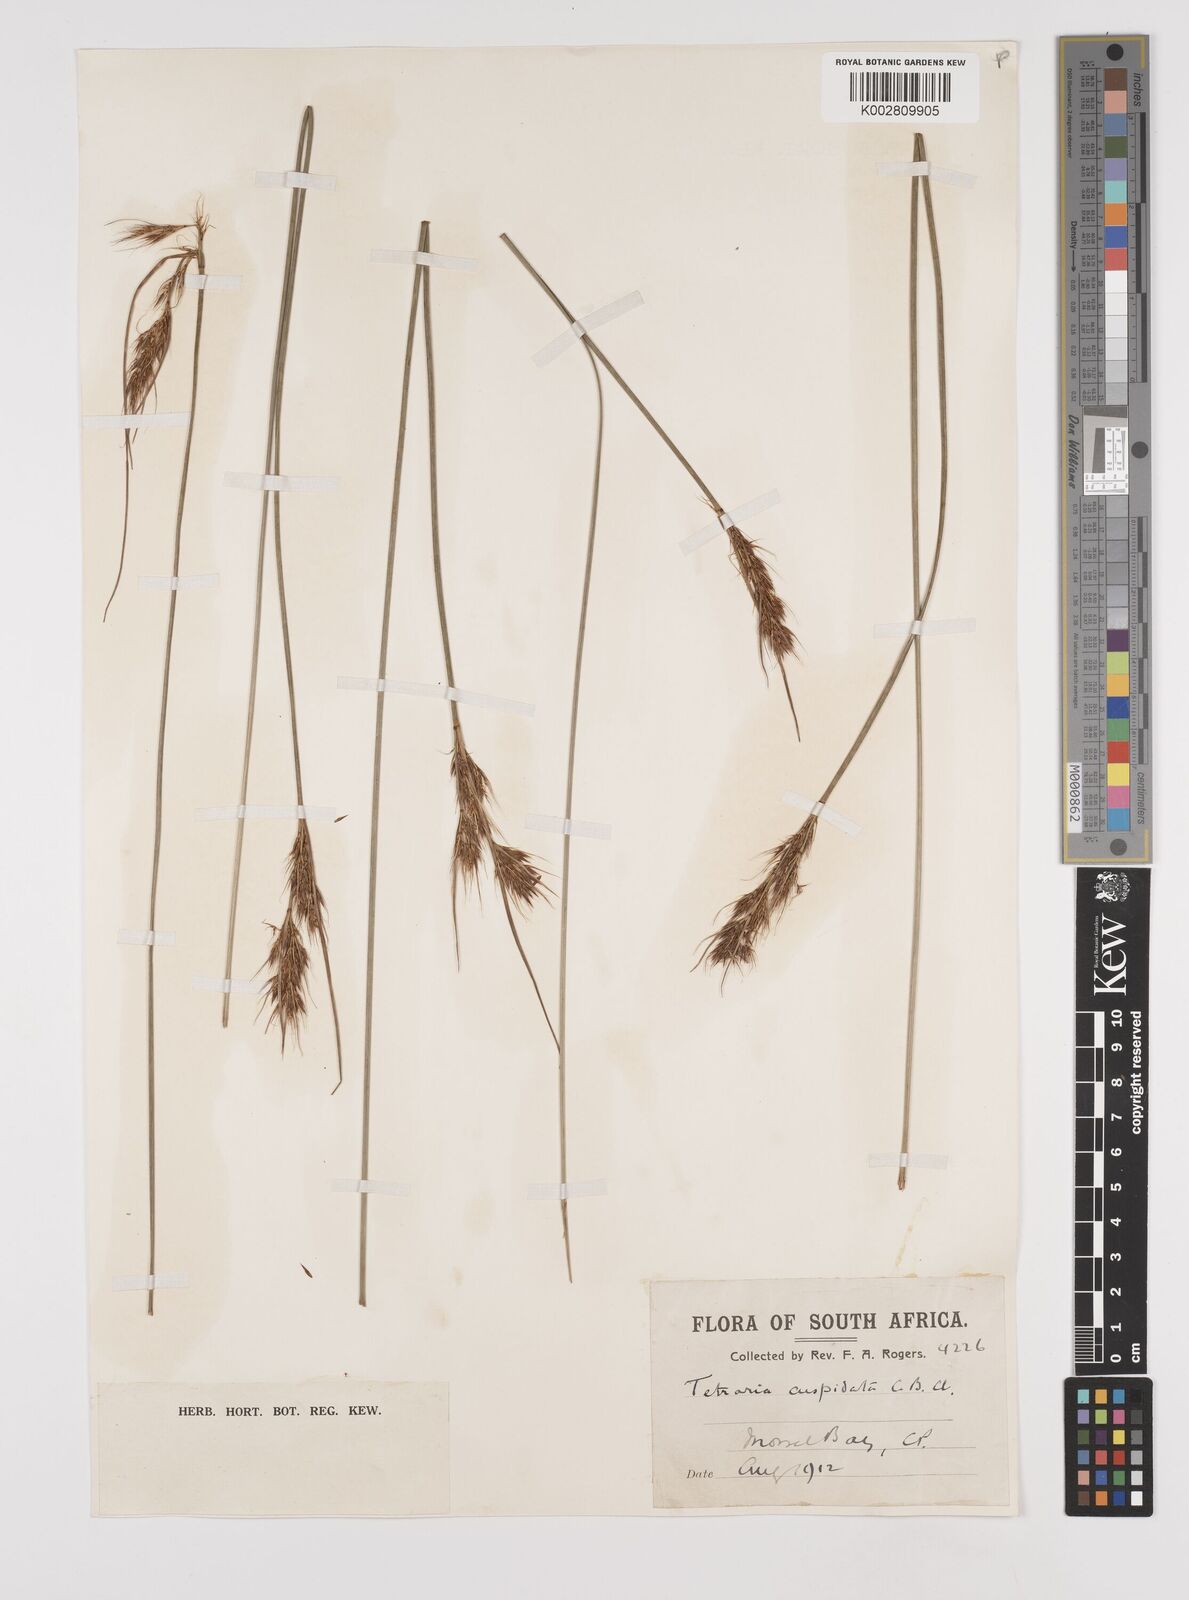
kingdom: Plantae
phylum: Tracheophyta
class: Liliopsida
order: Poales
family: Cyperaceae
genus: Schoenus
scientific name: Schoenus loreus
